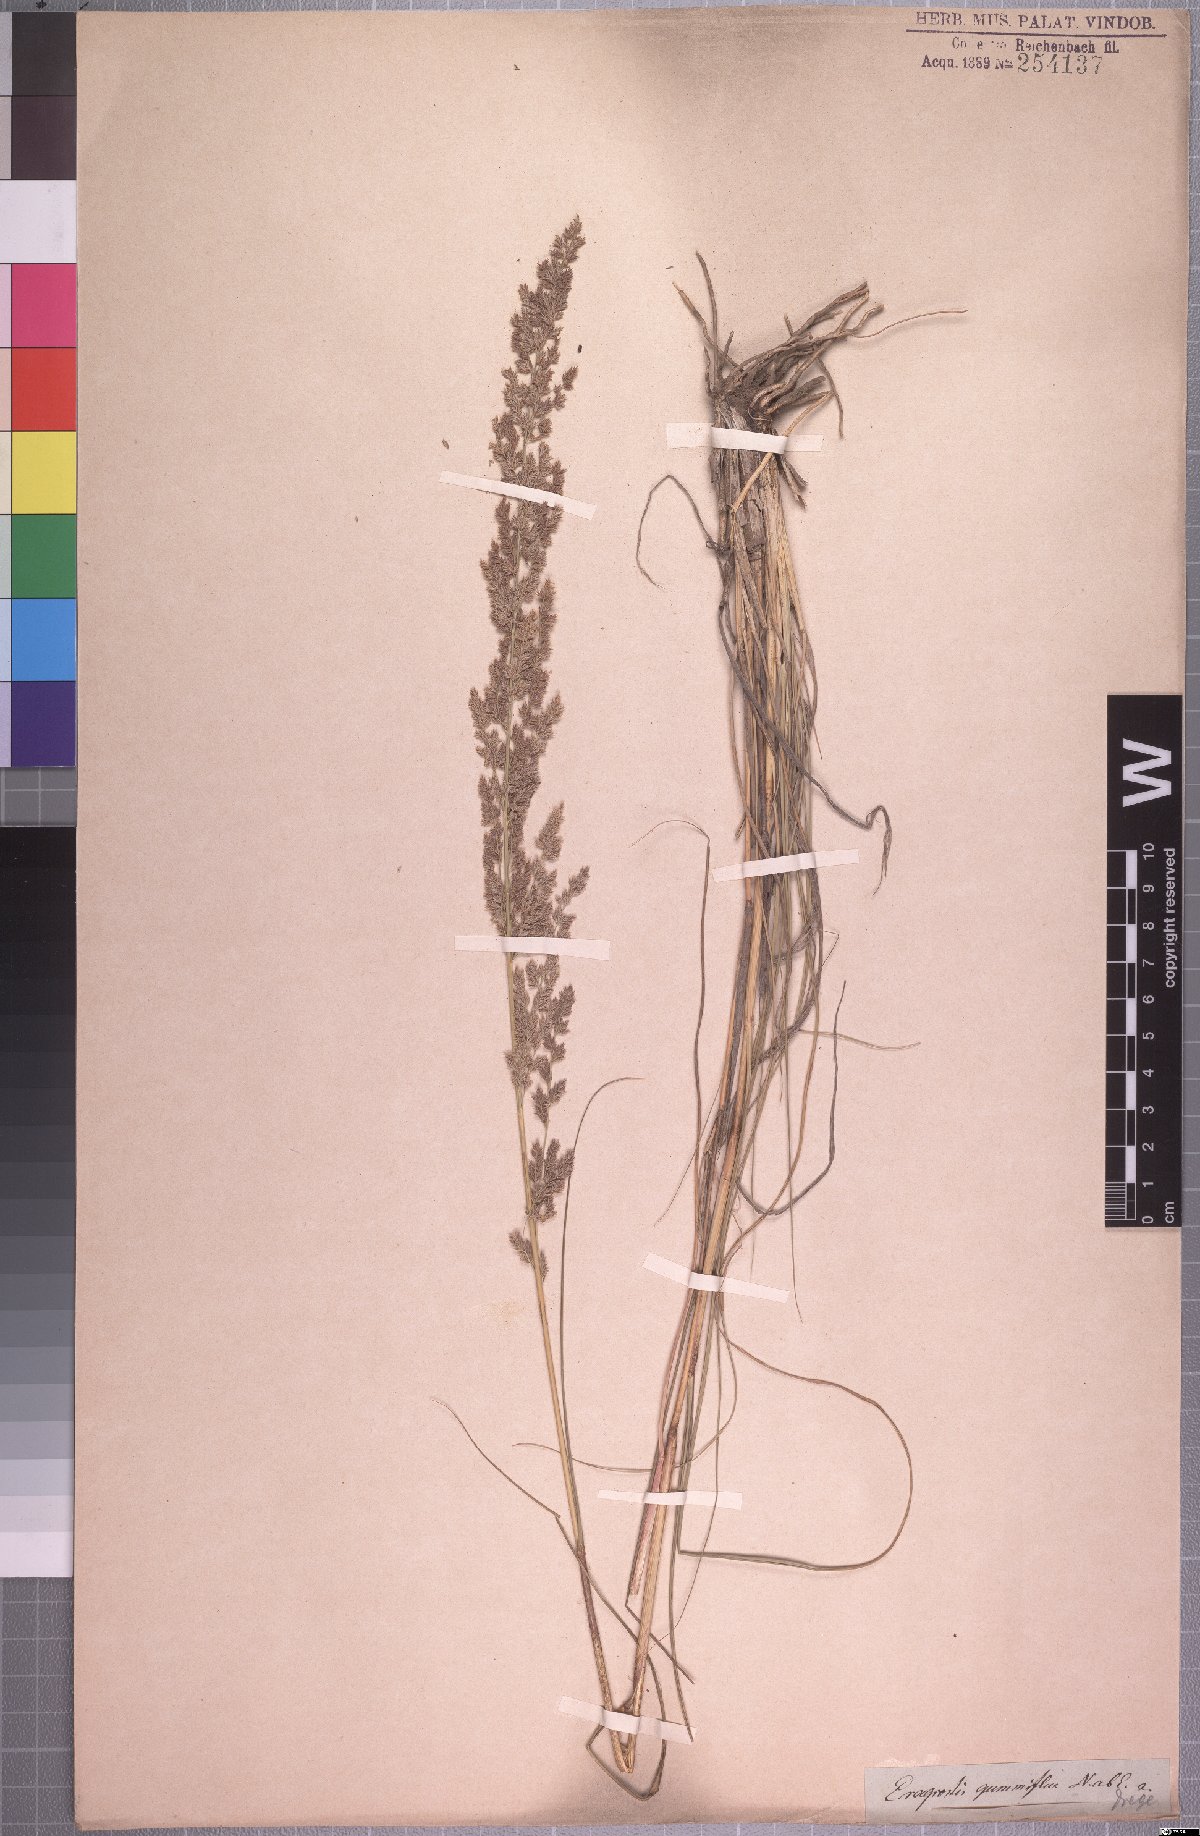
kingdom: Plantae
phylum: Tracheophyta
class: Liliopsida
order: Poales
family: Poaceae
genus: Eragrostis
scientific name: Eragrostis gummiflua
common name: Gum grass
